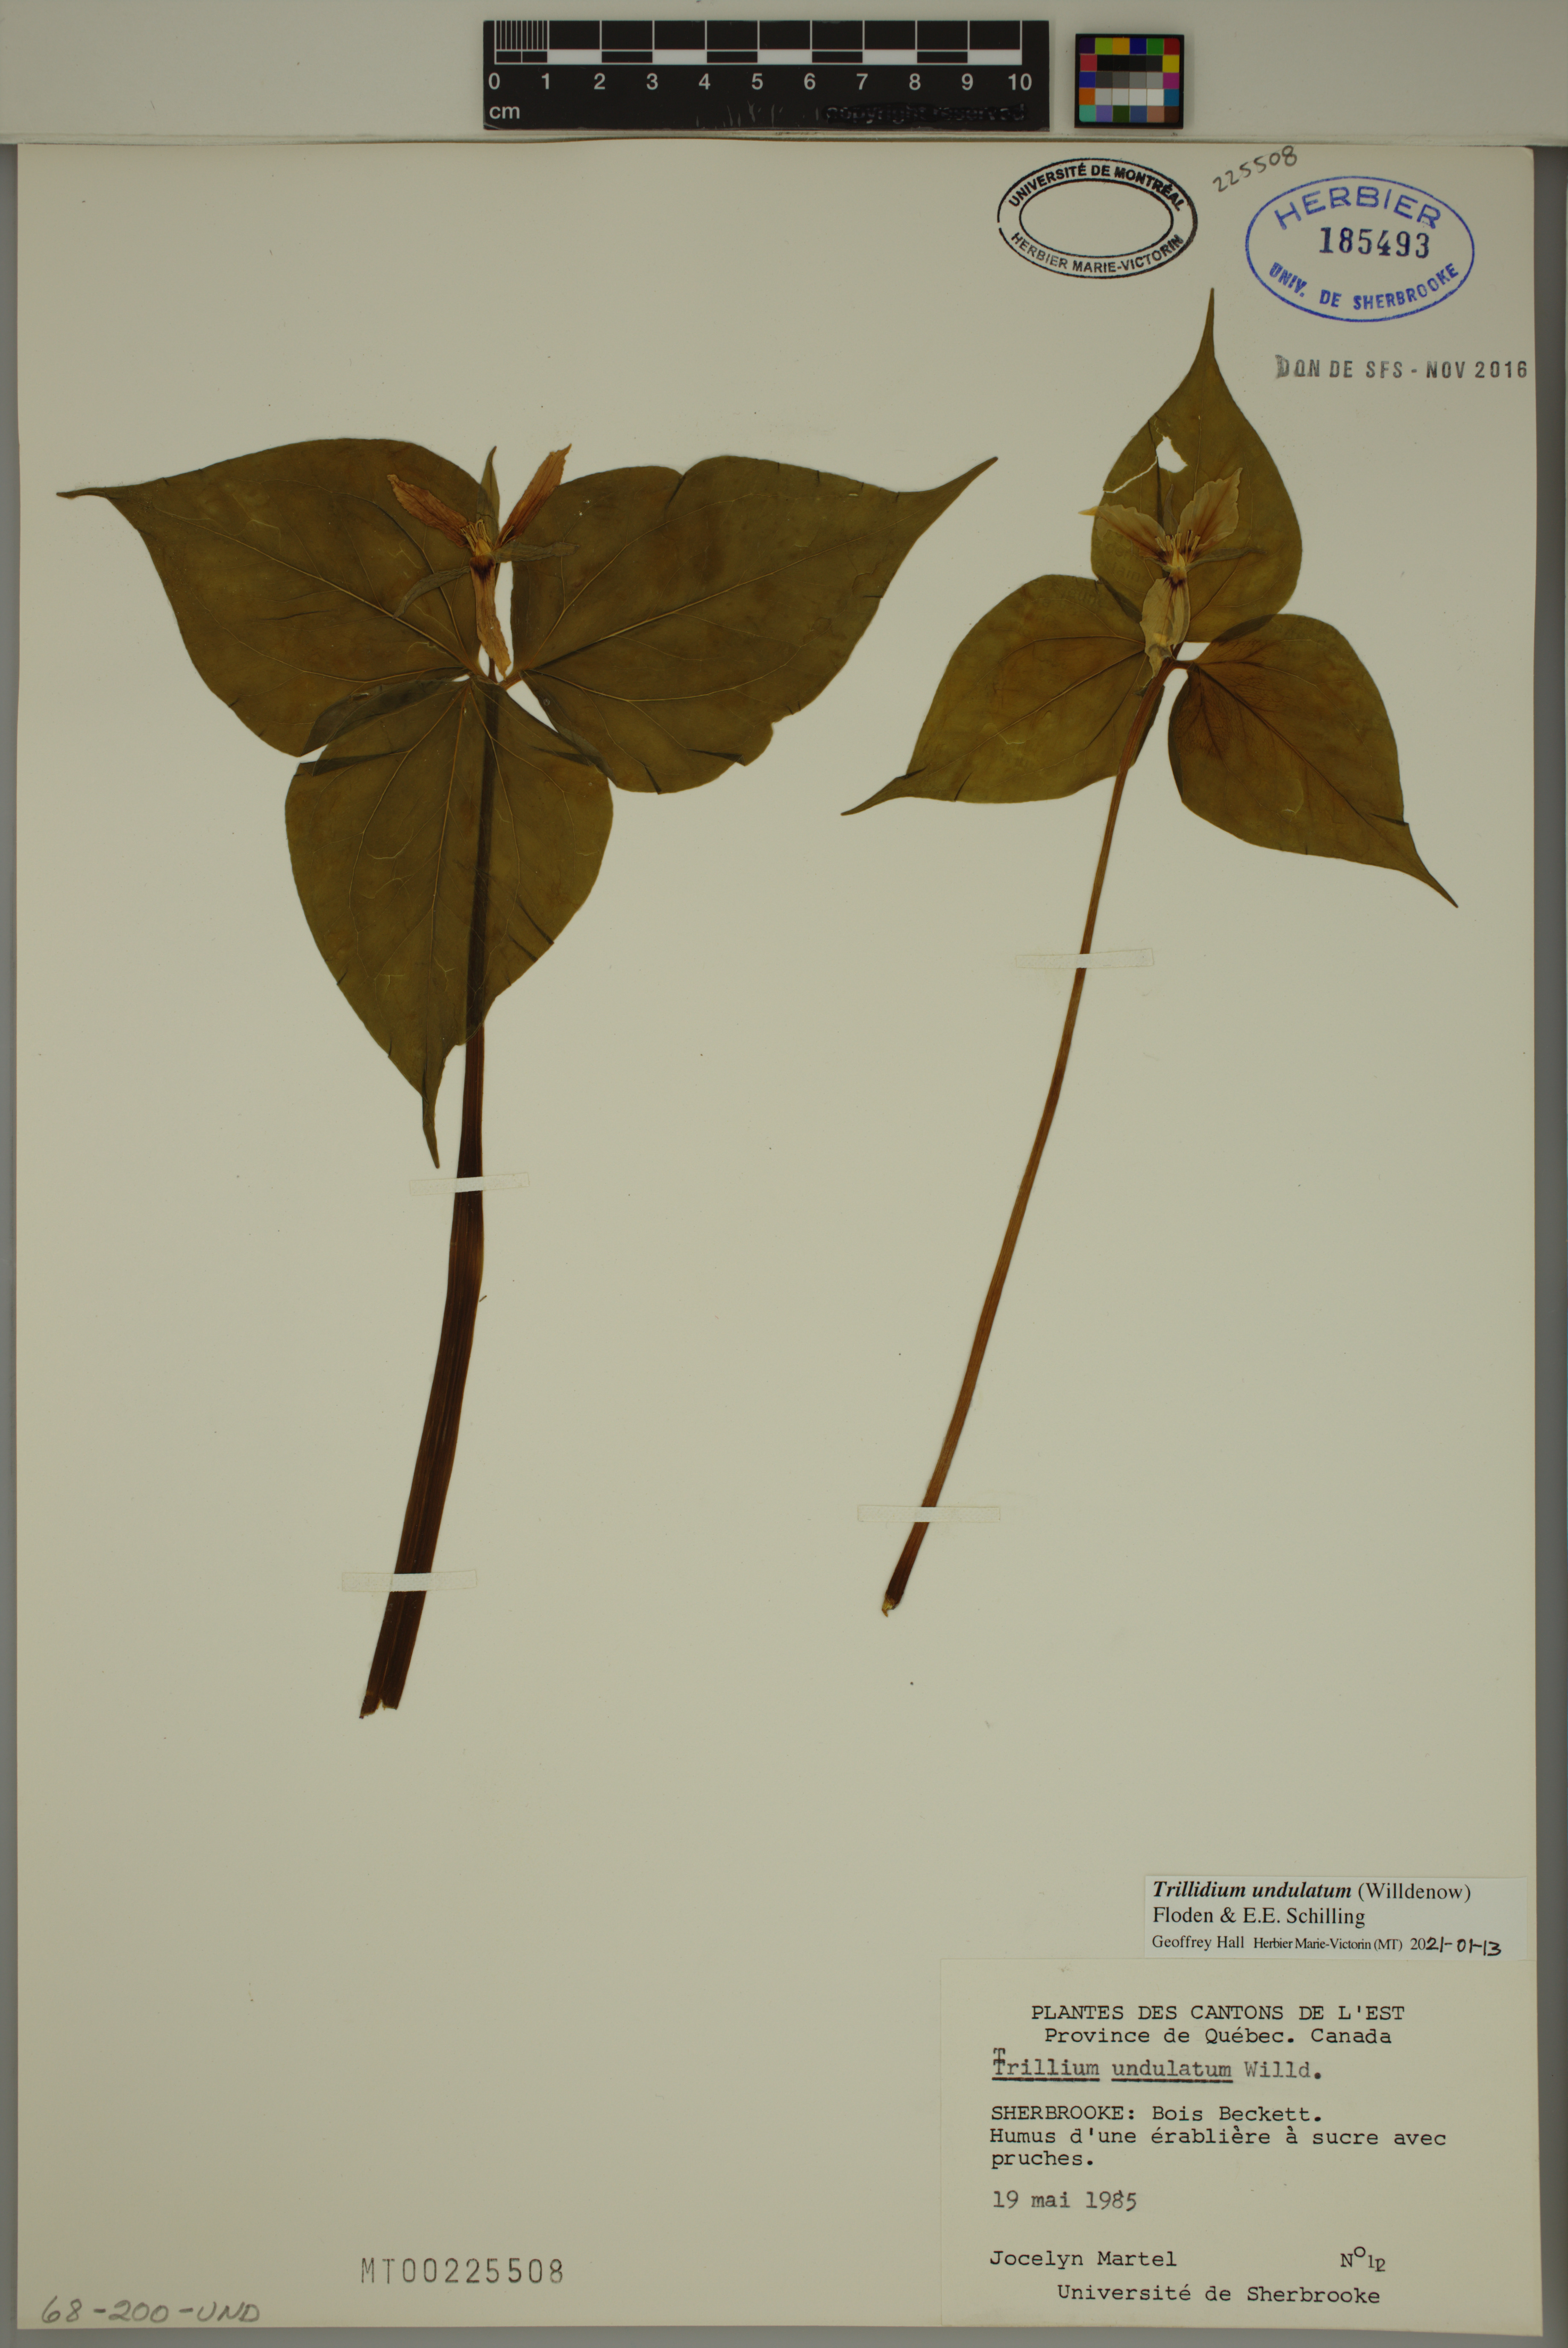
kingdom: Plantae
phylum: Tracheophyta
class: Liliopsida
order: Liliales
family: Melanthiaceae
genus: Trillium
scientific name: Trillium undulatum
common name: Paint trillium
